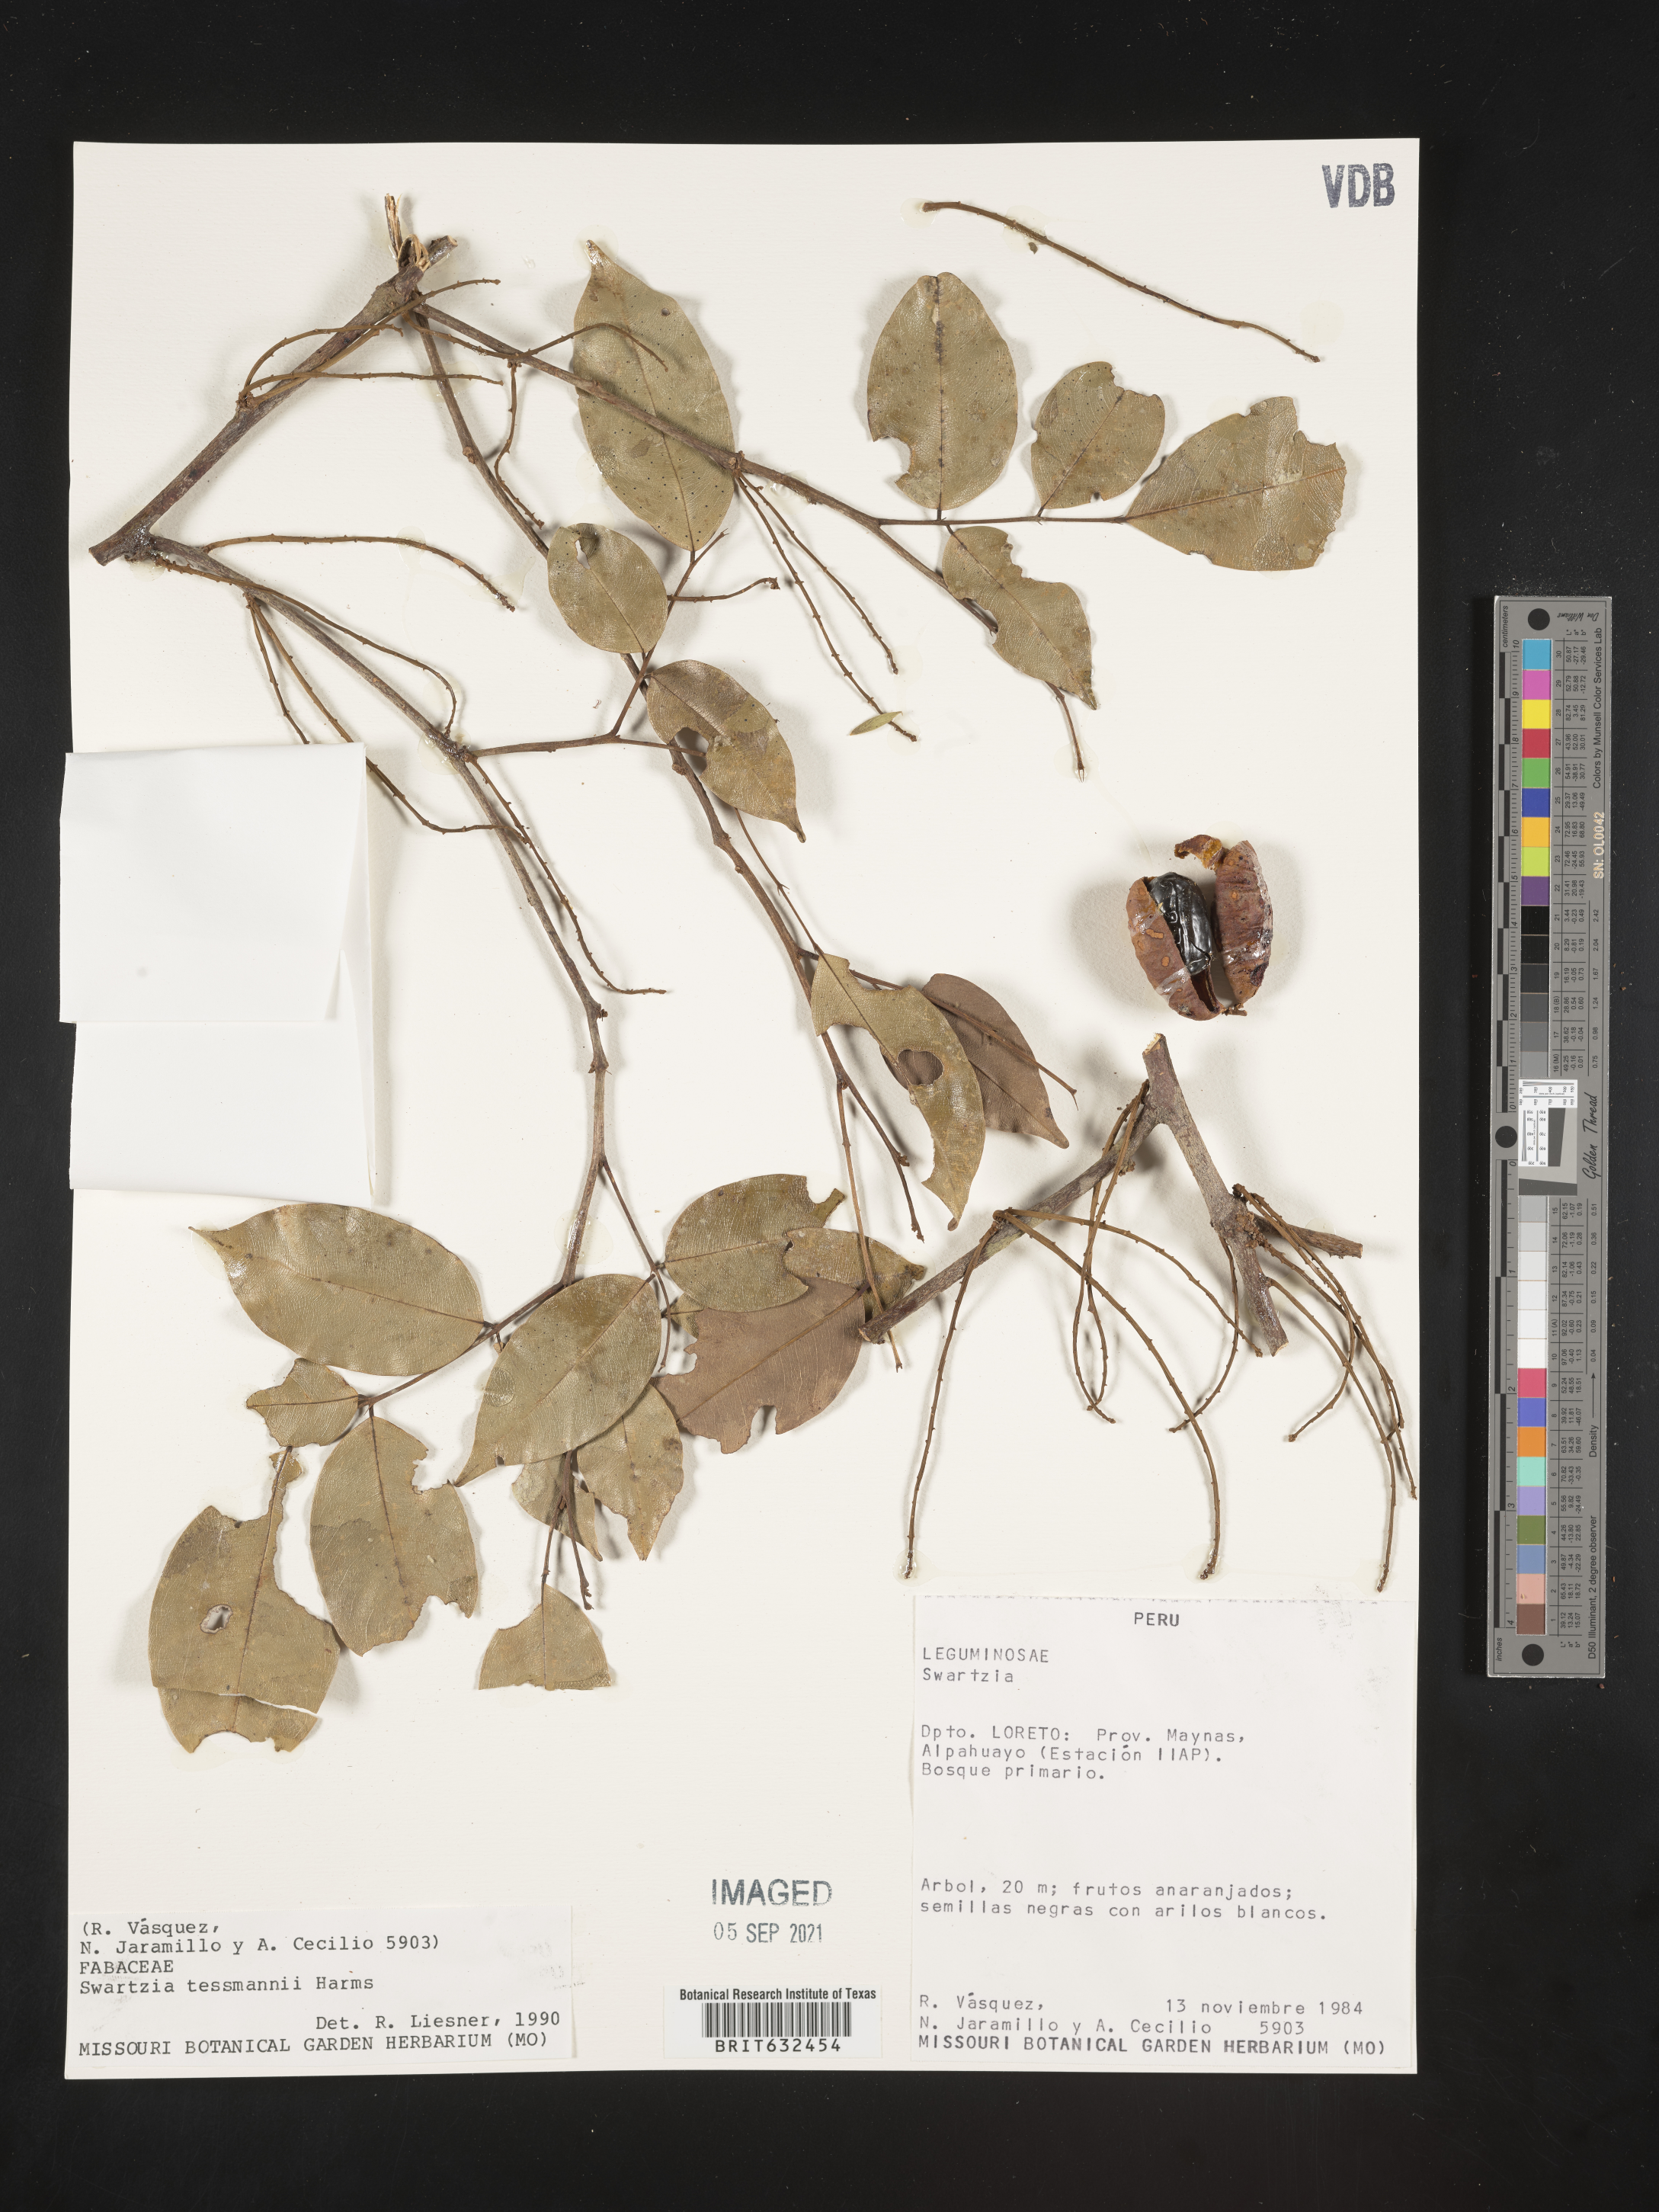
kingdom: Plantae
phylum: Tracheophyta
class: Magnoliopsida
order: Fabales
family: Fabaceae
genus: Swartzia
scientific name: Swartzia
